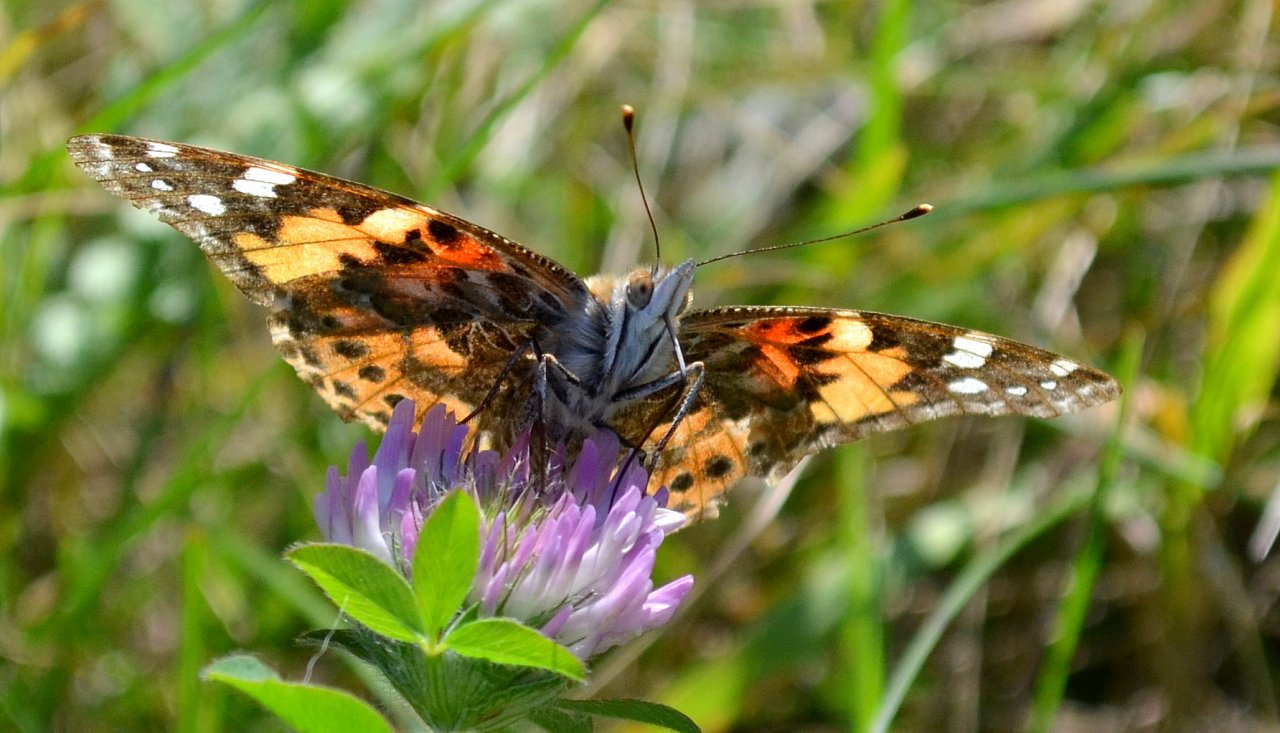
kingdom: Animalia
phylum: Arthropoda
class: Insecta
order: Lepidoptera
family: Nymphalidae
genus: Vanessa
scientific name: Vanessa cardui
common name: Painted Lady
